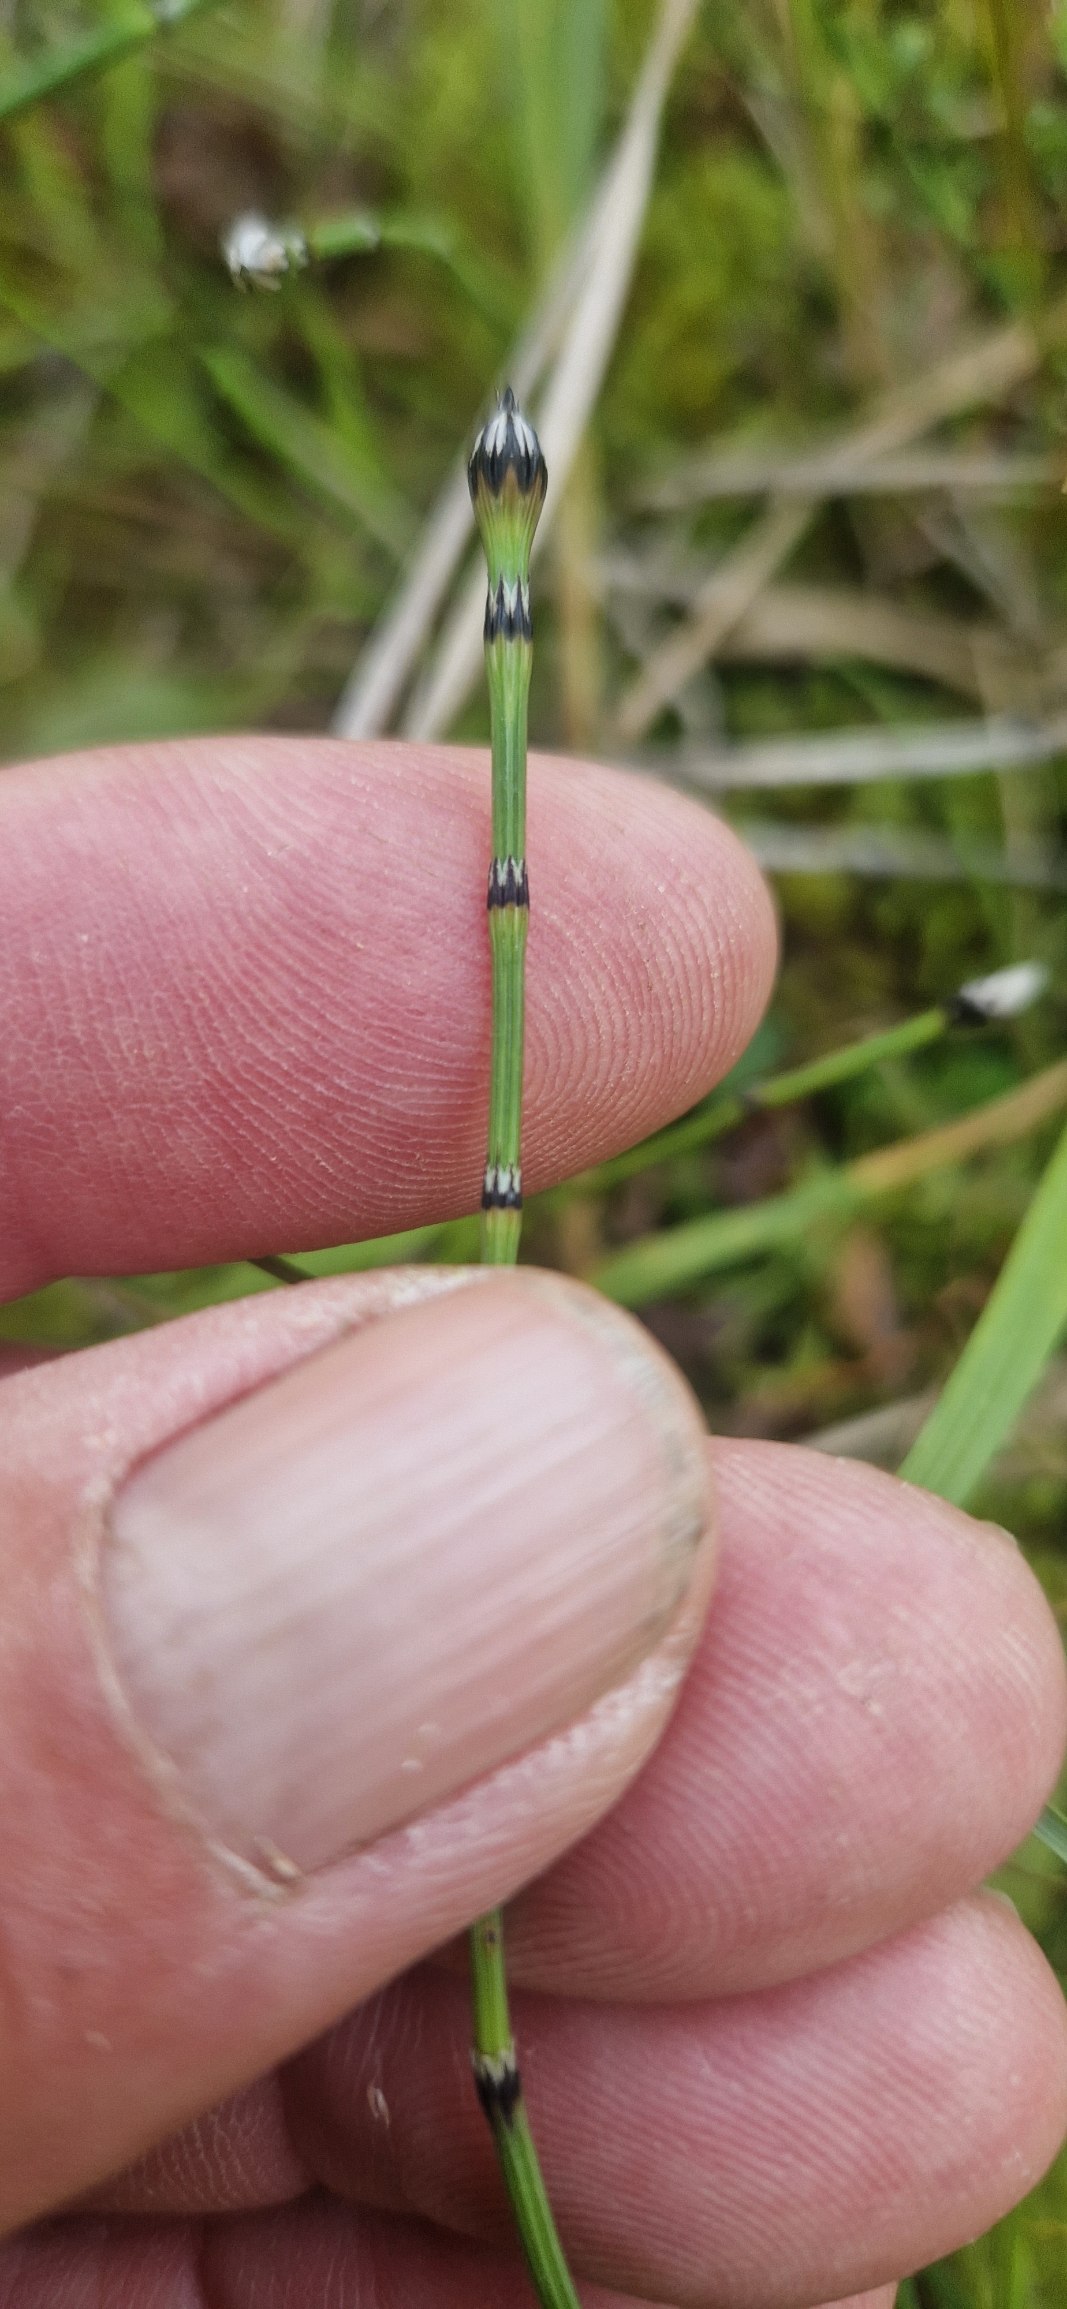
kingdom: Plantae
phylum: Tracheophyta
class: Polypodiopsida
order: Equisetales
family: Equisetaceae
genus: Equisetum
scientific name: Equisetum variegatum
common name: Liden padderok
